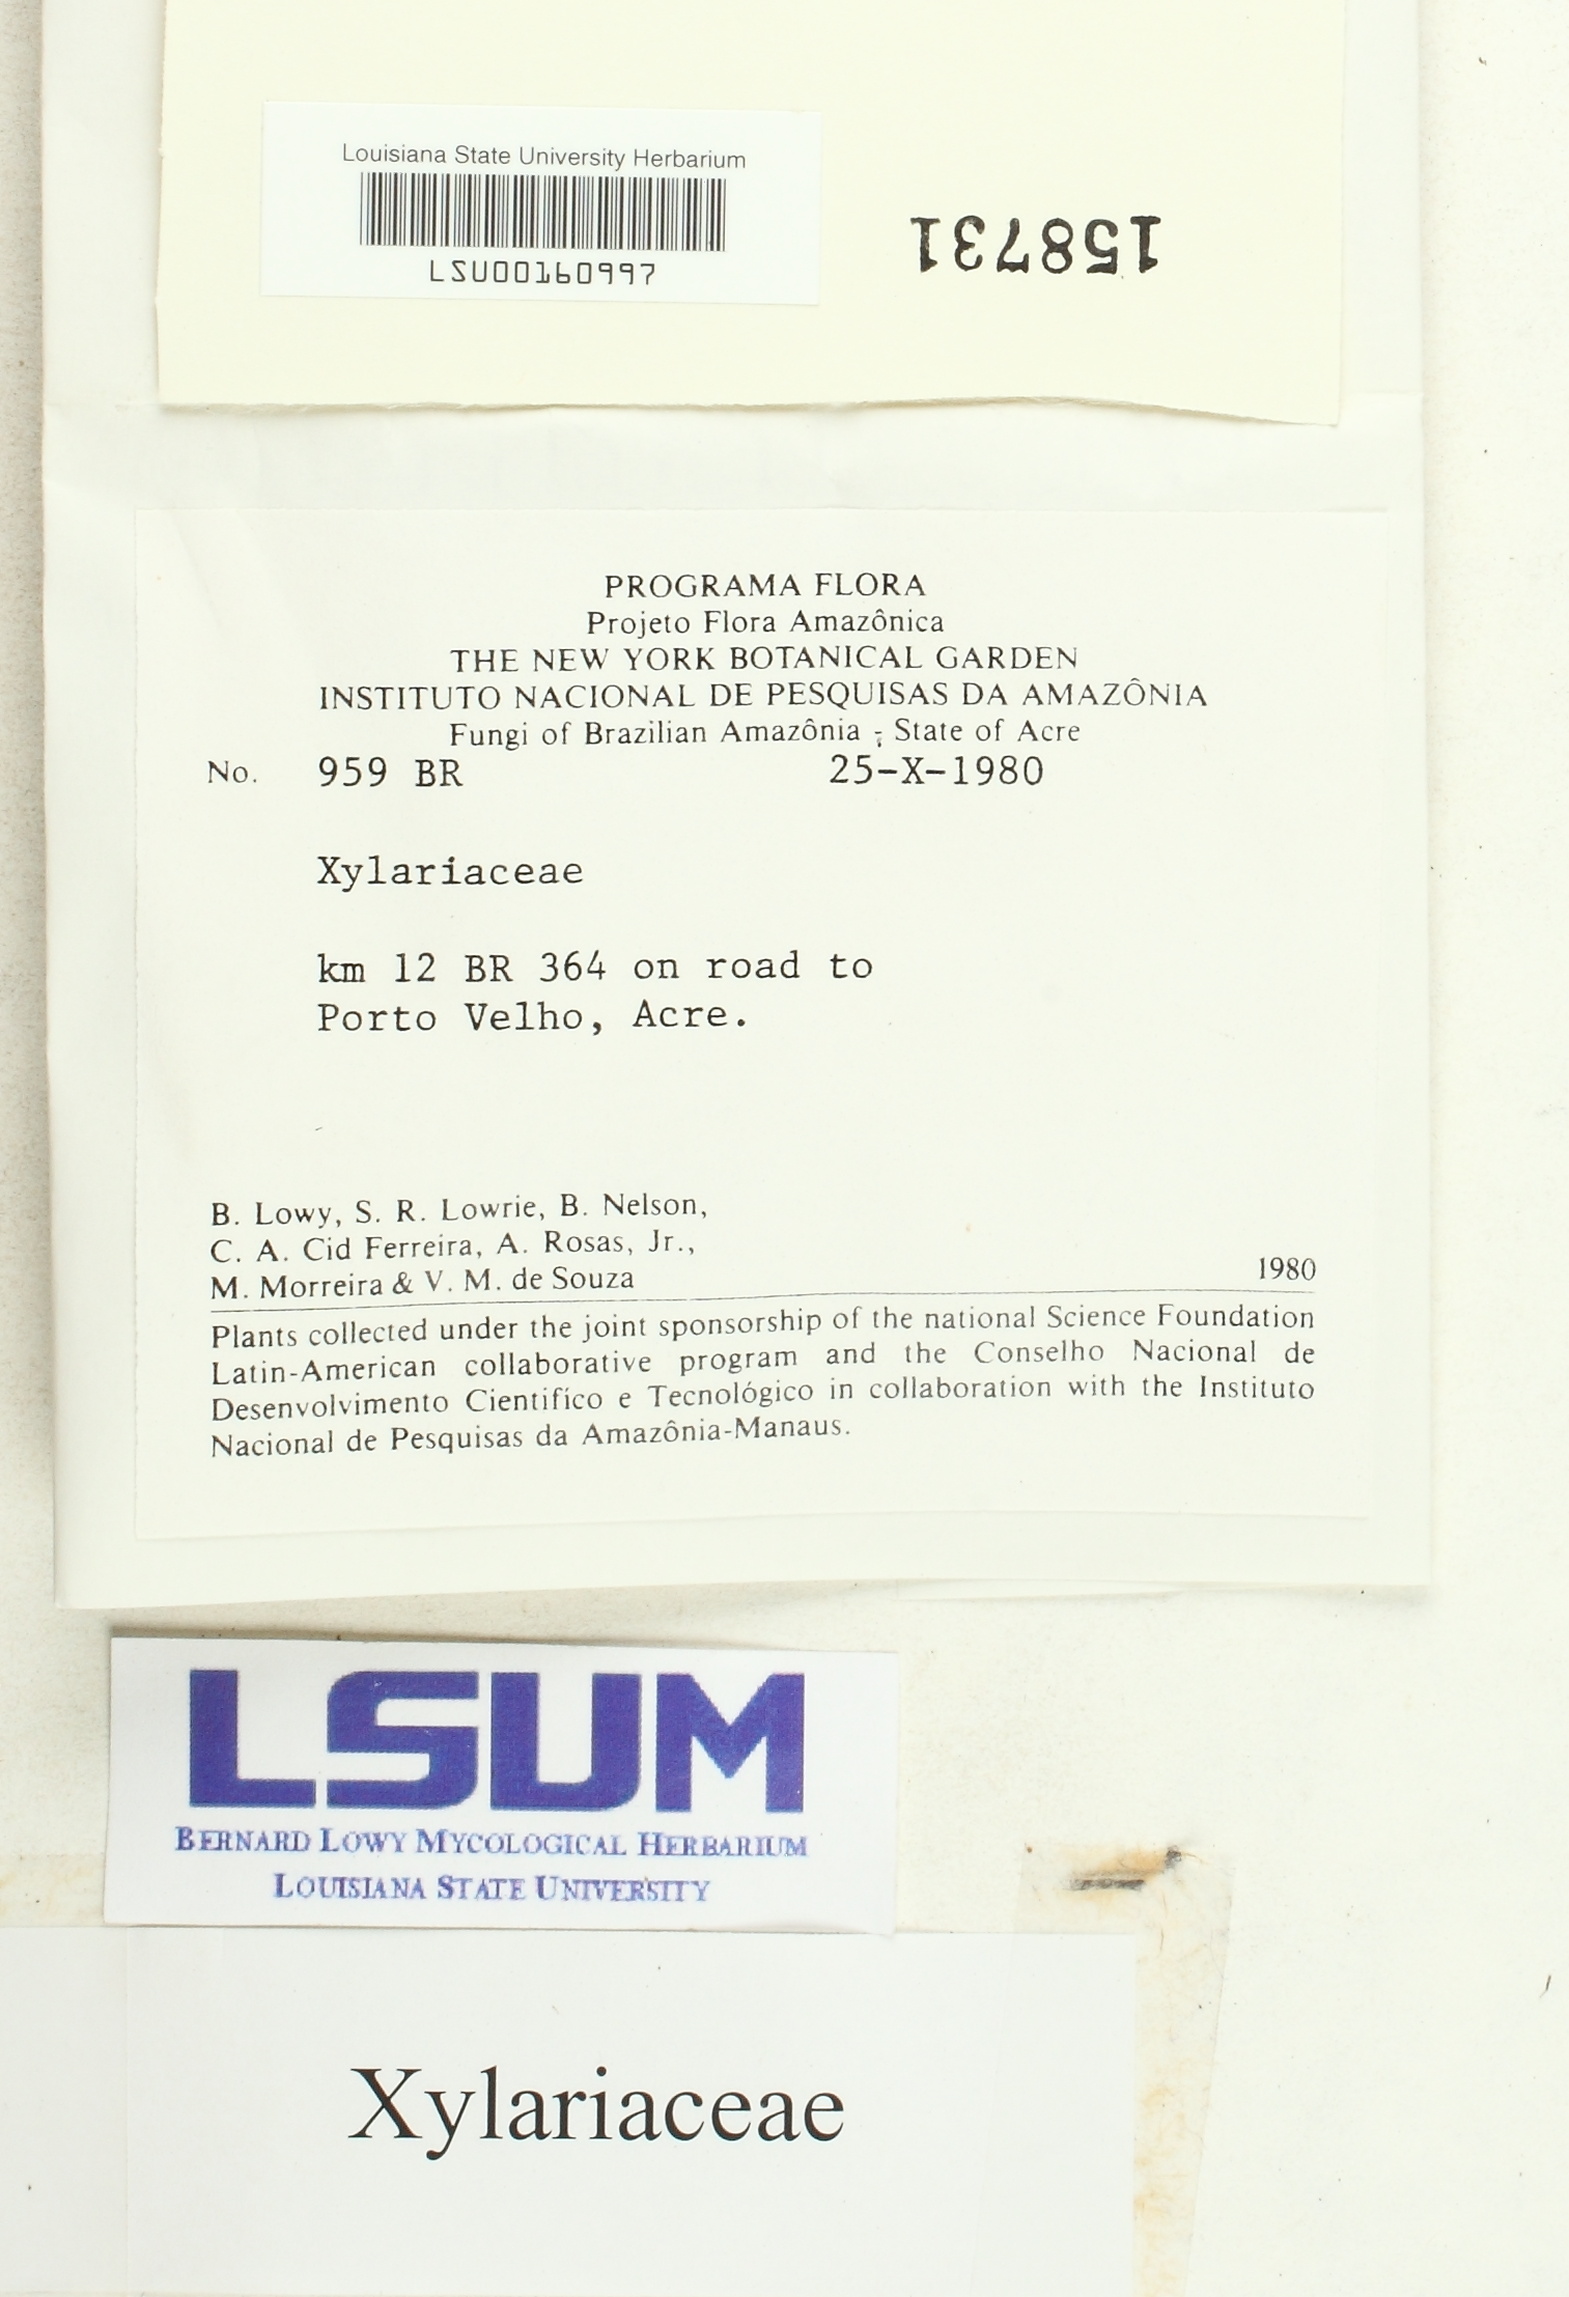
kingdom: Fungi
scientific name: Fungi
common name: Fungi
